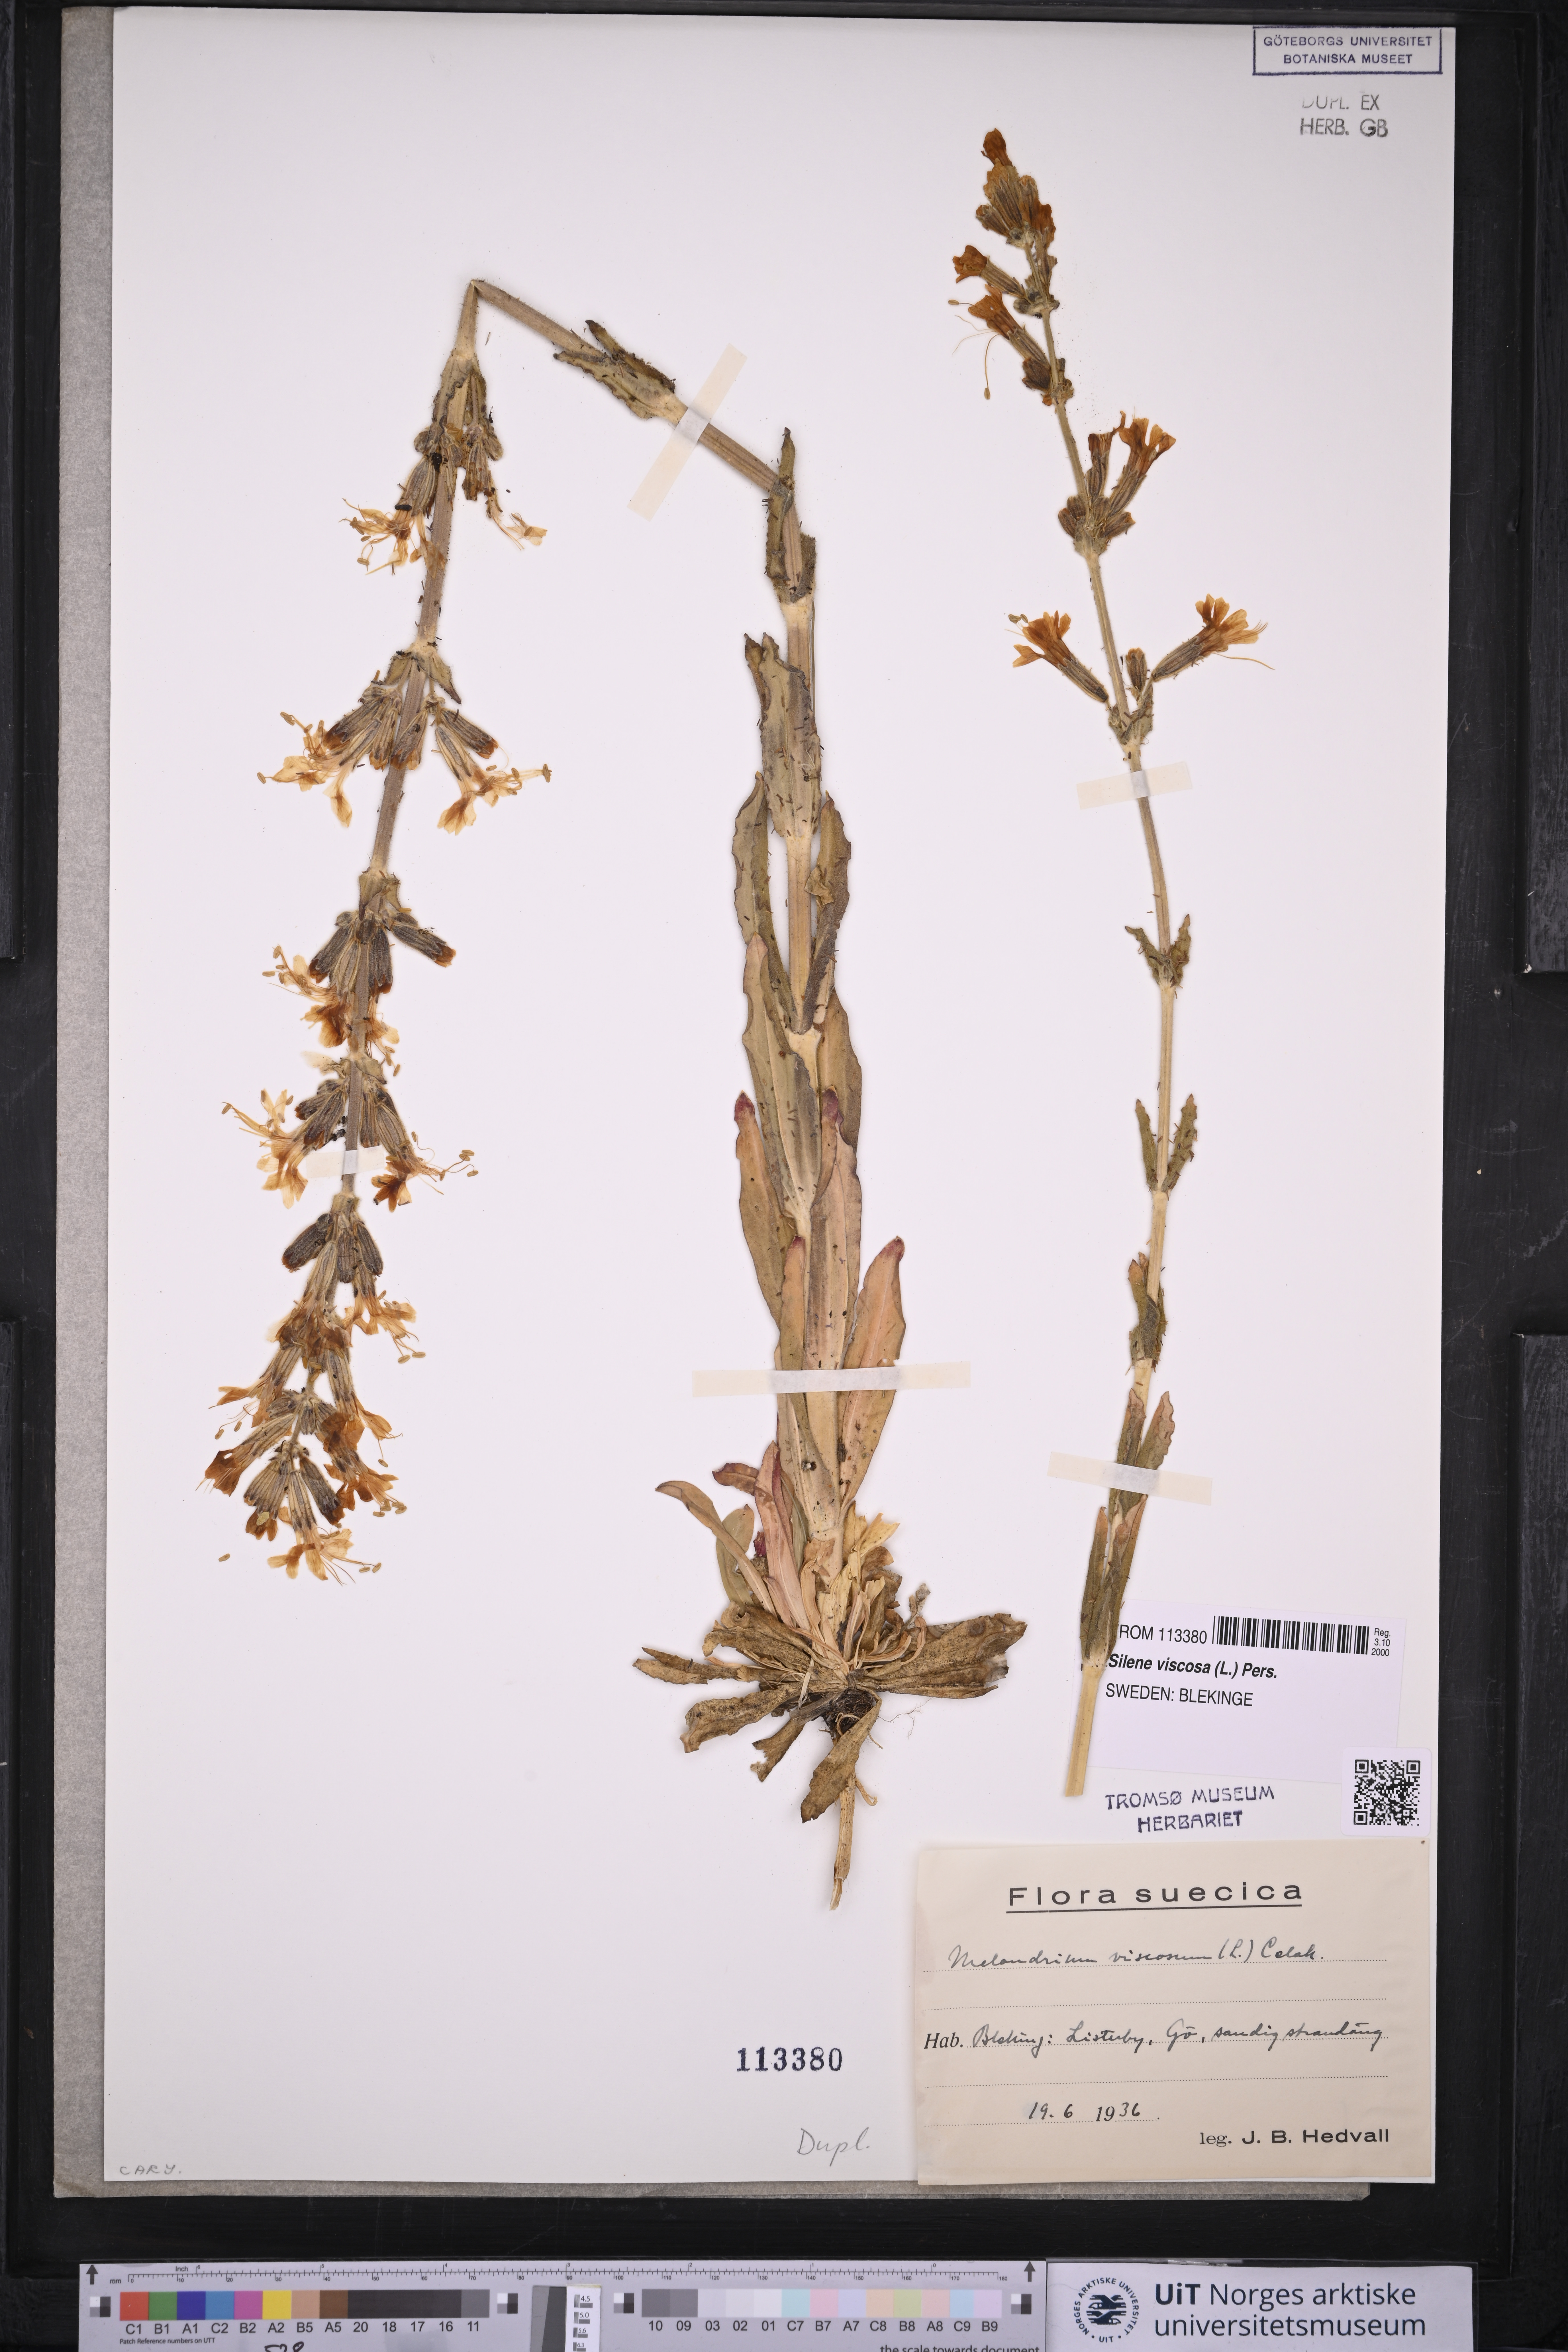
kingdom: Plantae
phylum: Tracheophyta
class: Magnoliopsida
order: Caryophyllales
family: Caryophyllaceae
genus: Silene
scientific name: Silene viscosa
